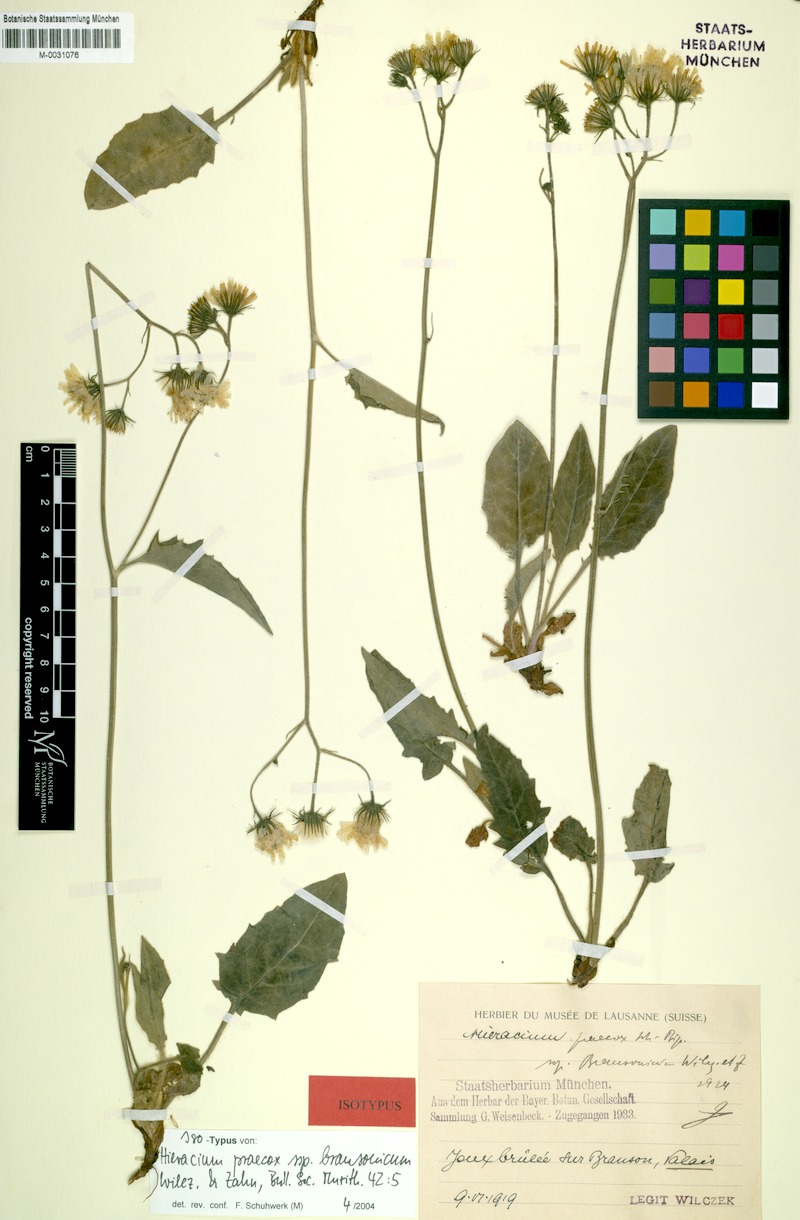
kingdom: Plantae
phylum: Tracheophyta
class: Magnoliopsida
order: Asterales
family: Asteraceae
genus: Hieracium
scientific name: Hieracium glaucinum
